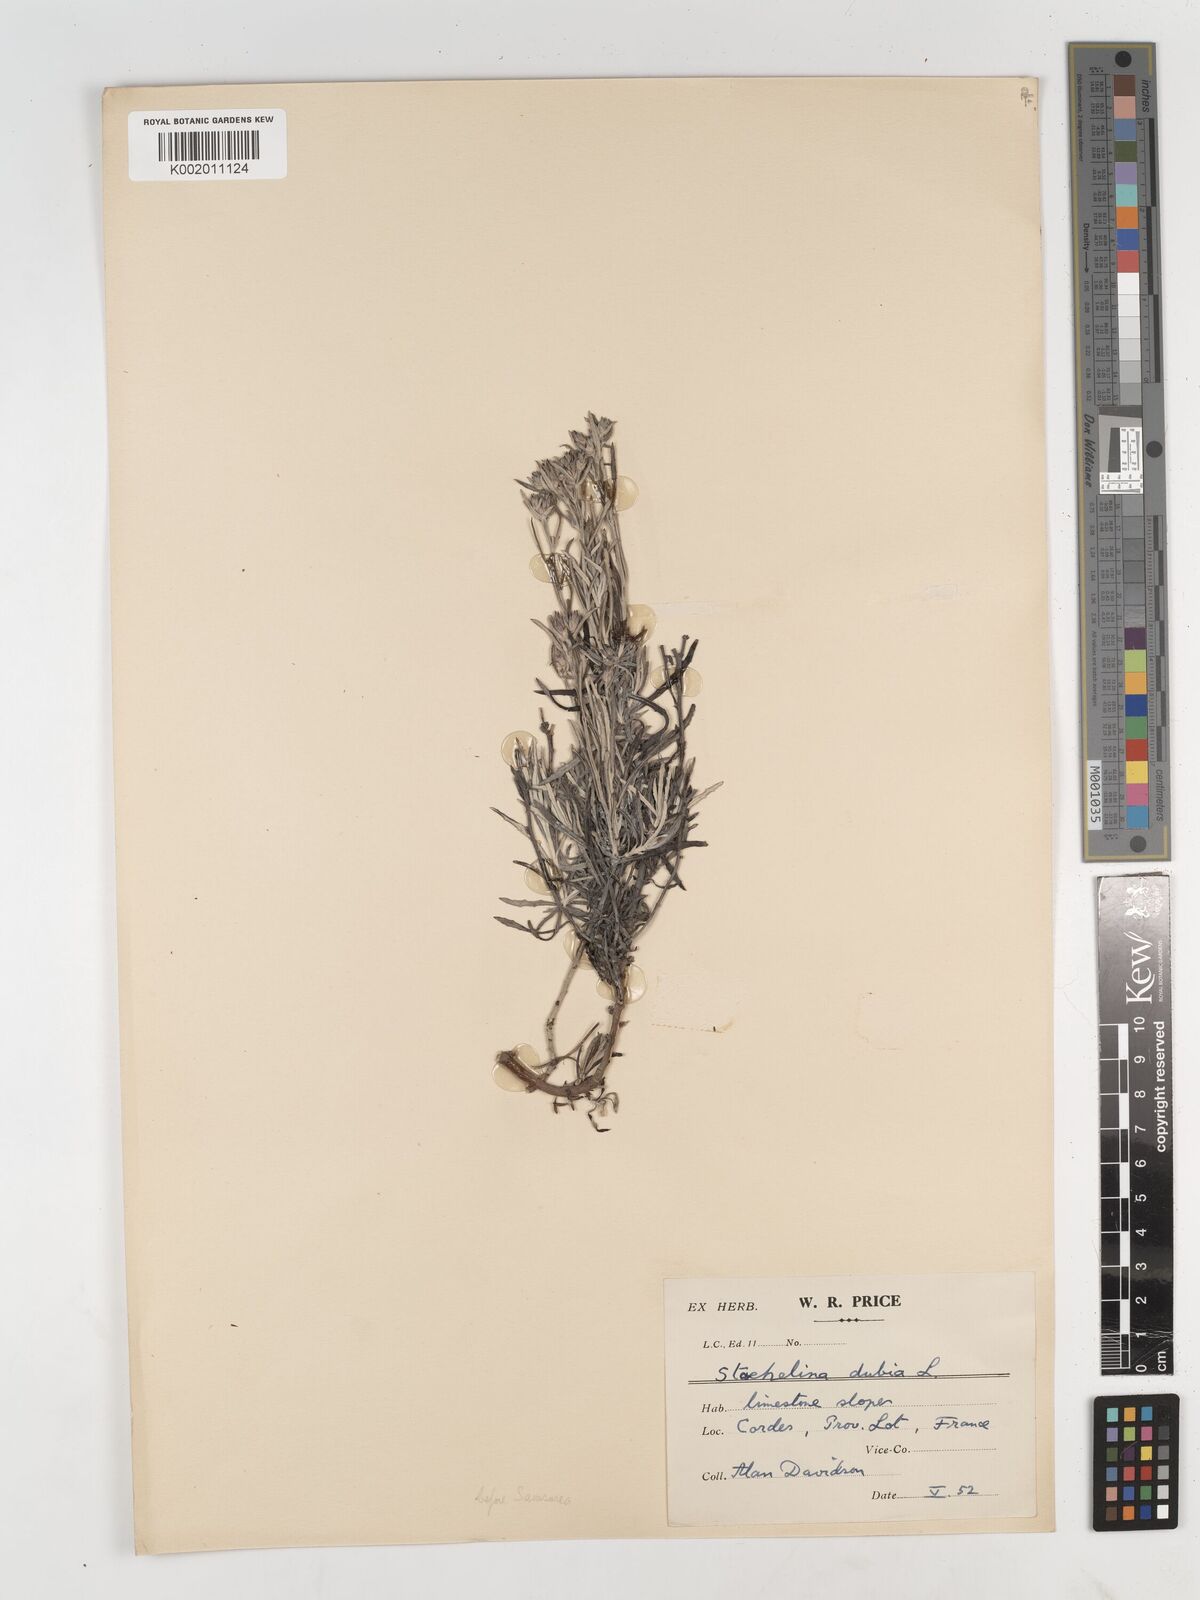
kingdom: Plantae
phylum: Tracheophyta
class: Magnoliopsida
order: Asterales
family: Asteraceae
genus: Staehelina
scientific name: Staehelina dubia
